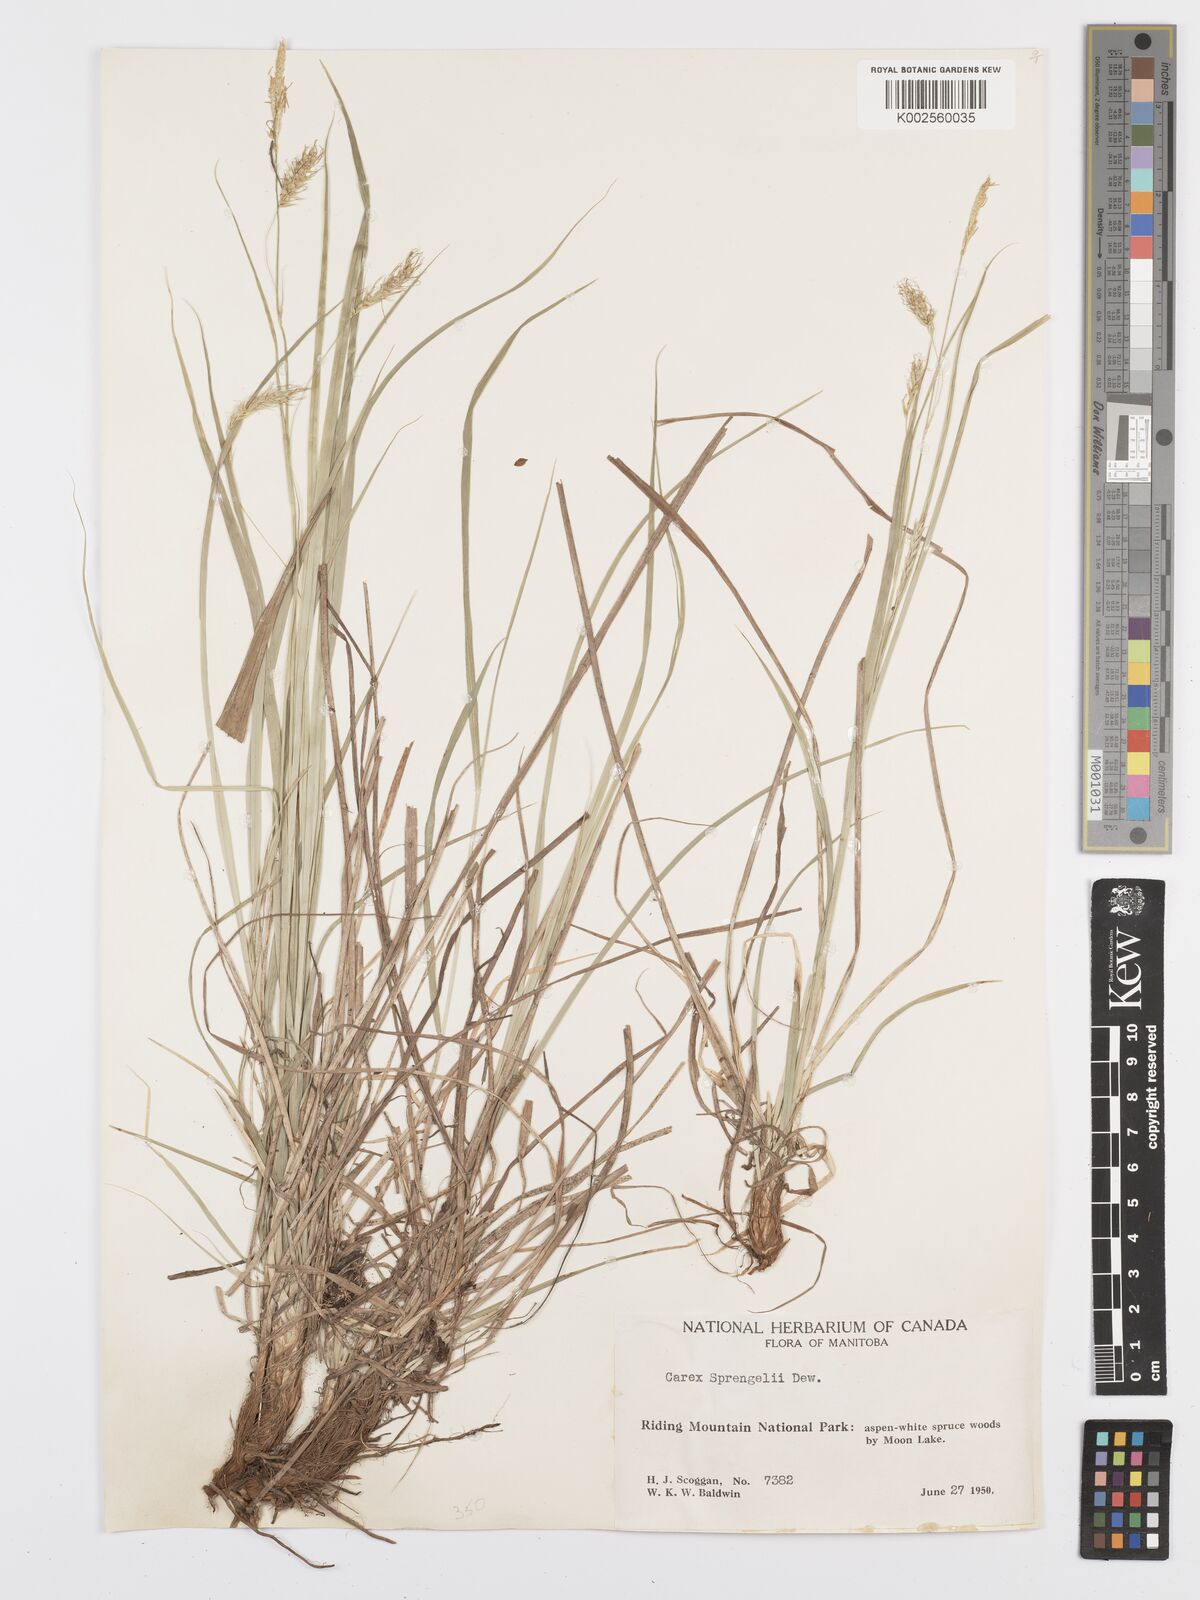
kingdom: Plantae
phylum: Tracheophyta
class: Liliopsida
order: Poales
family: Cyperaceae
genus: Carex
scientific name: Carex sprengelii
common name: Long-beaked sedge
